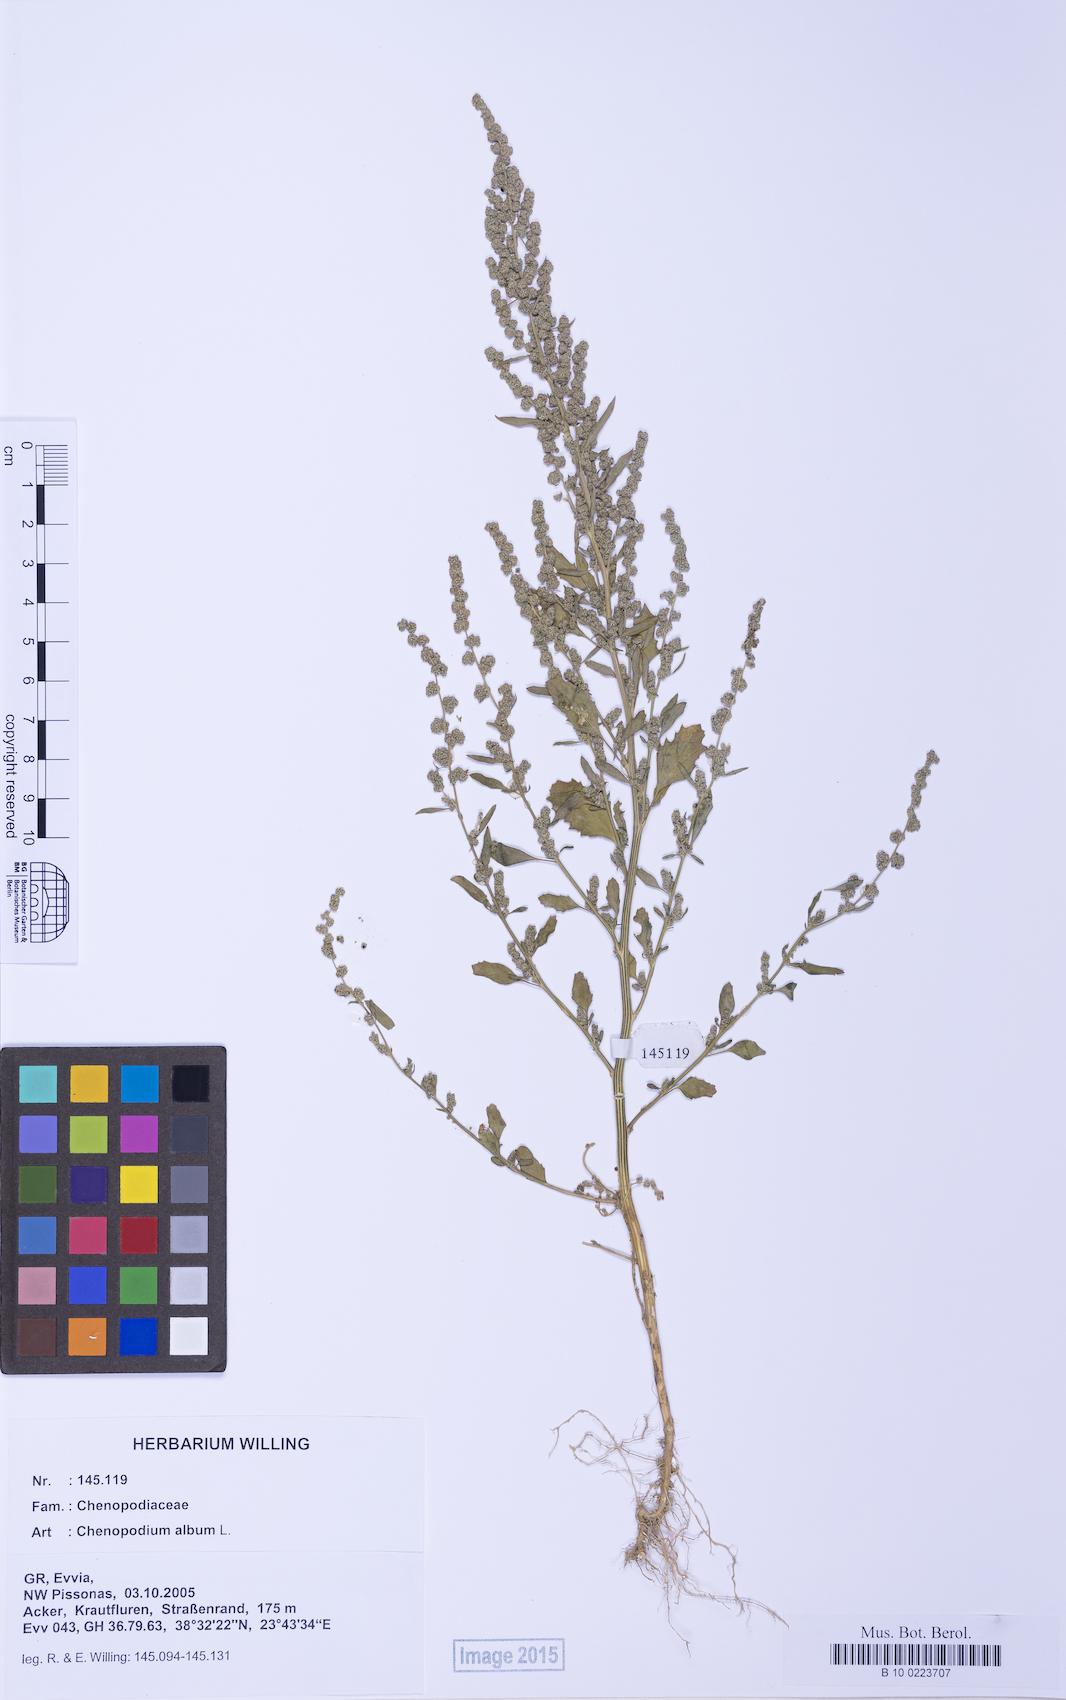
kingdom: Plantae
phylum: Tracheophyta
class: Magnoliopsida
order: Caryophyllales
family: Amaranthaceae
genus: Chenopodium
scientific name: Chenopodium album
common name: Fat-hen
